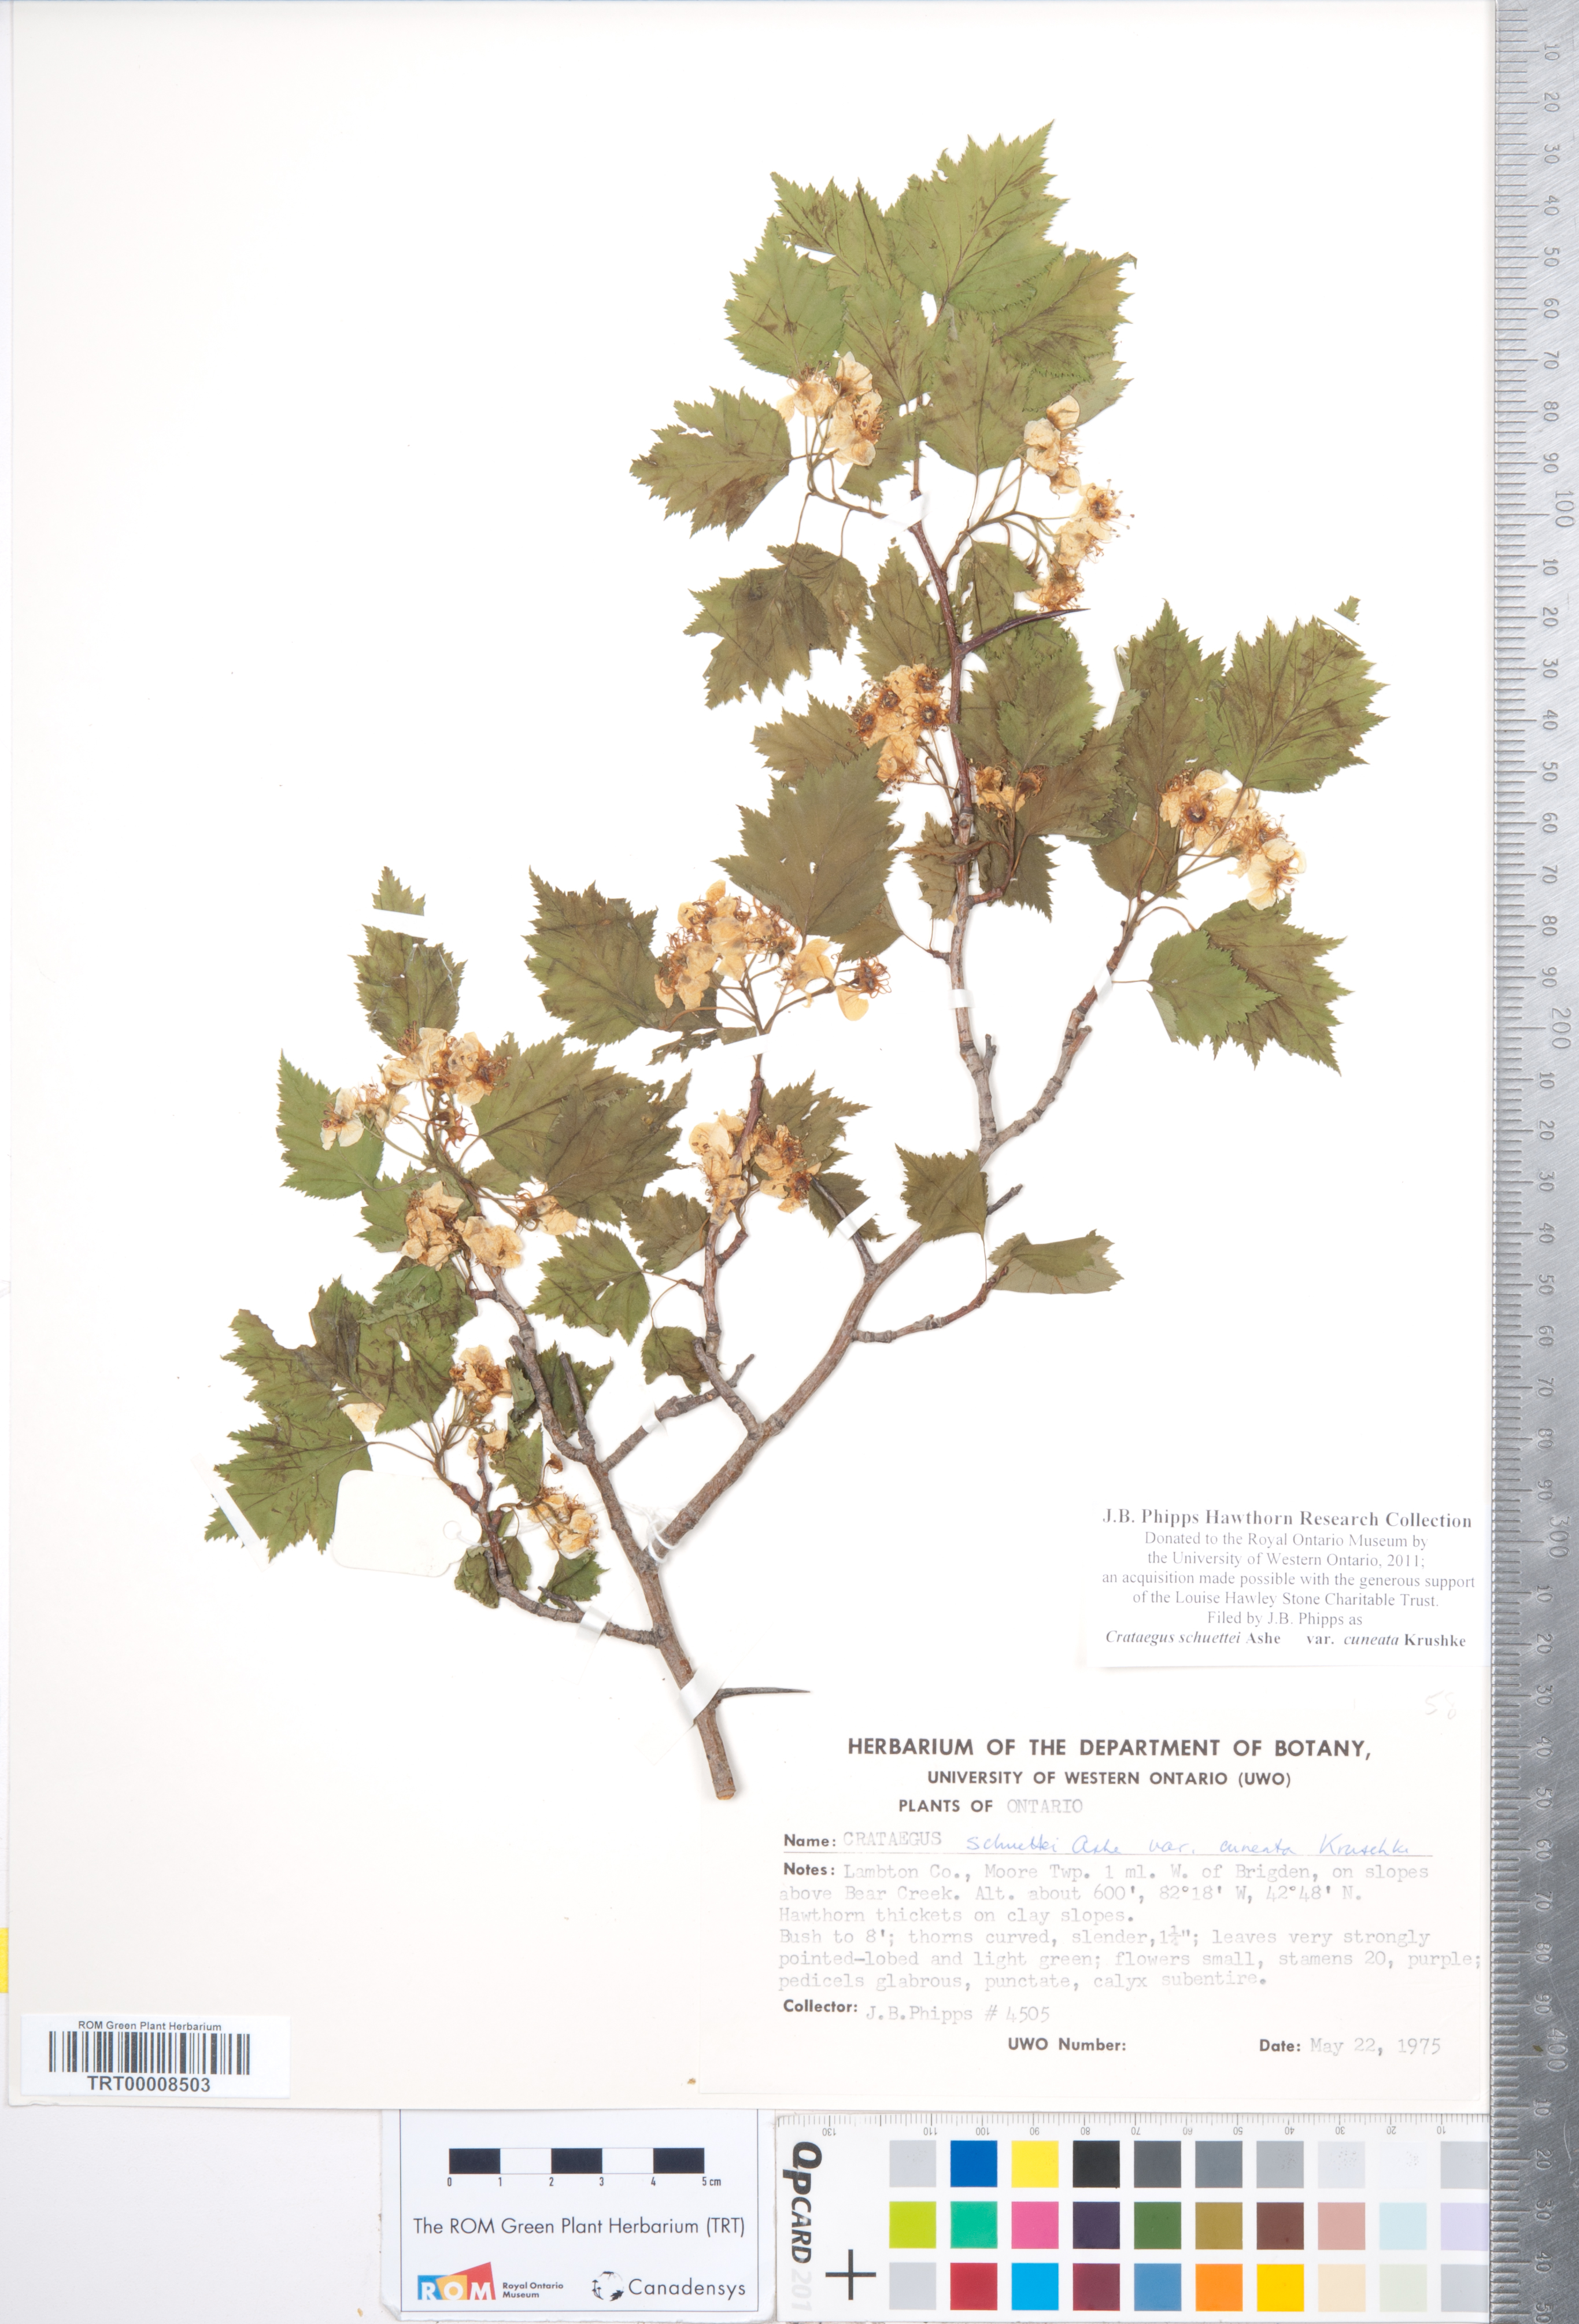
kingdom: Plantae
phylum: Tracheophyta
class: Magnoliopsida
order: Rosales
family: Rosaceae
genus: Crataegus
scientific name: Crataegus schuettei
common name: Schuette's hawthorn
